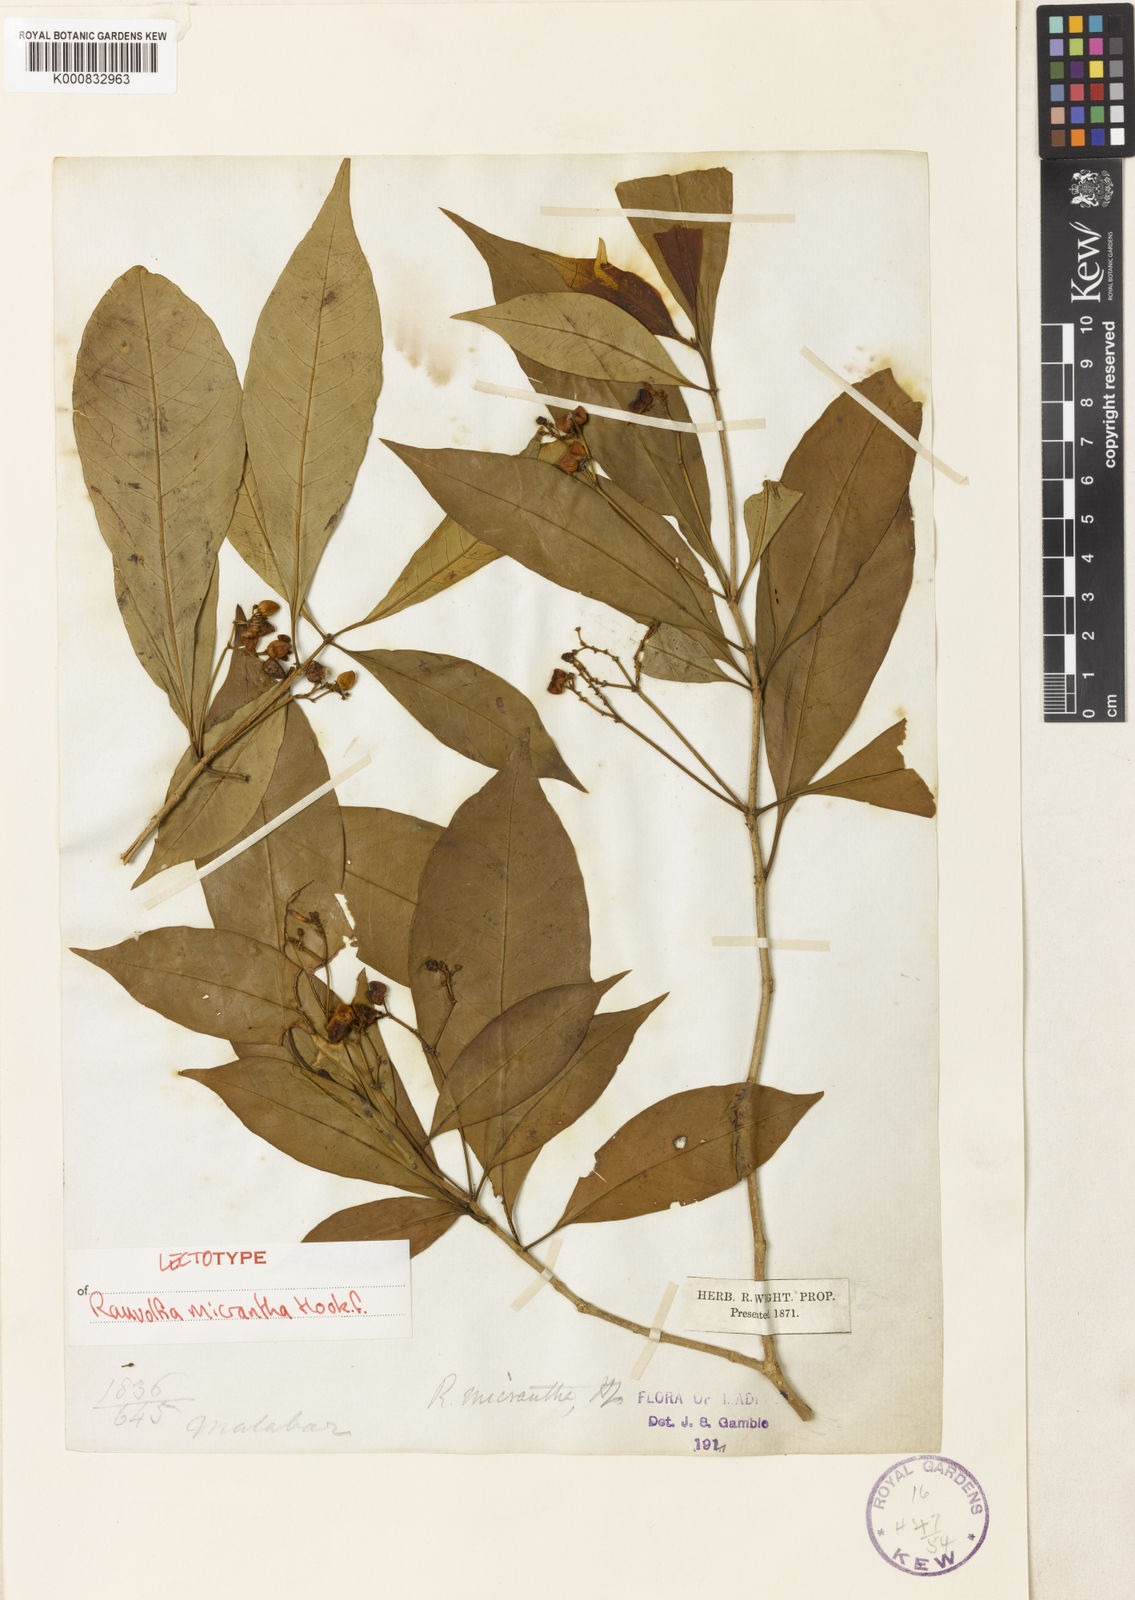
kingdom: Plantae
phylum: Tracheophyta
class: Magnoliopsida
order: Gentianales
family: Apocynaceae
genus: Rauvolfia
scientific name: Rauvolfia micrantha
